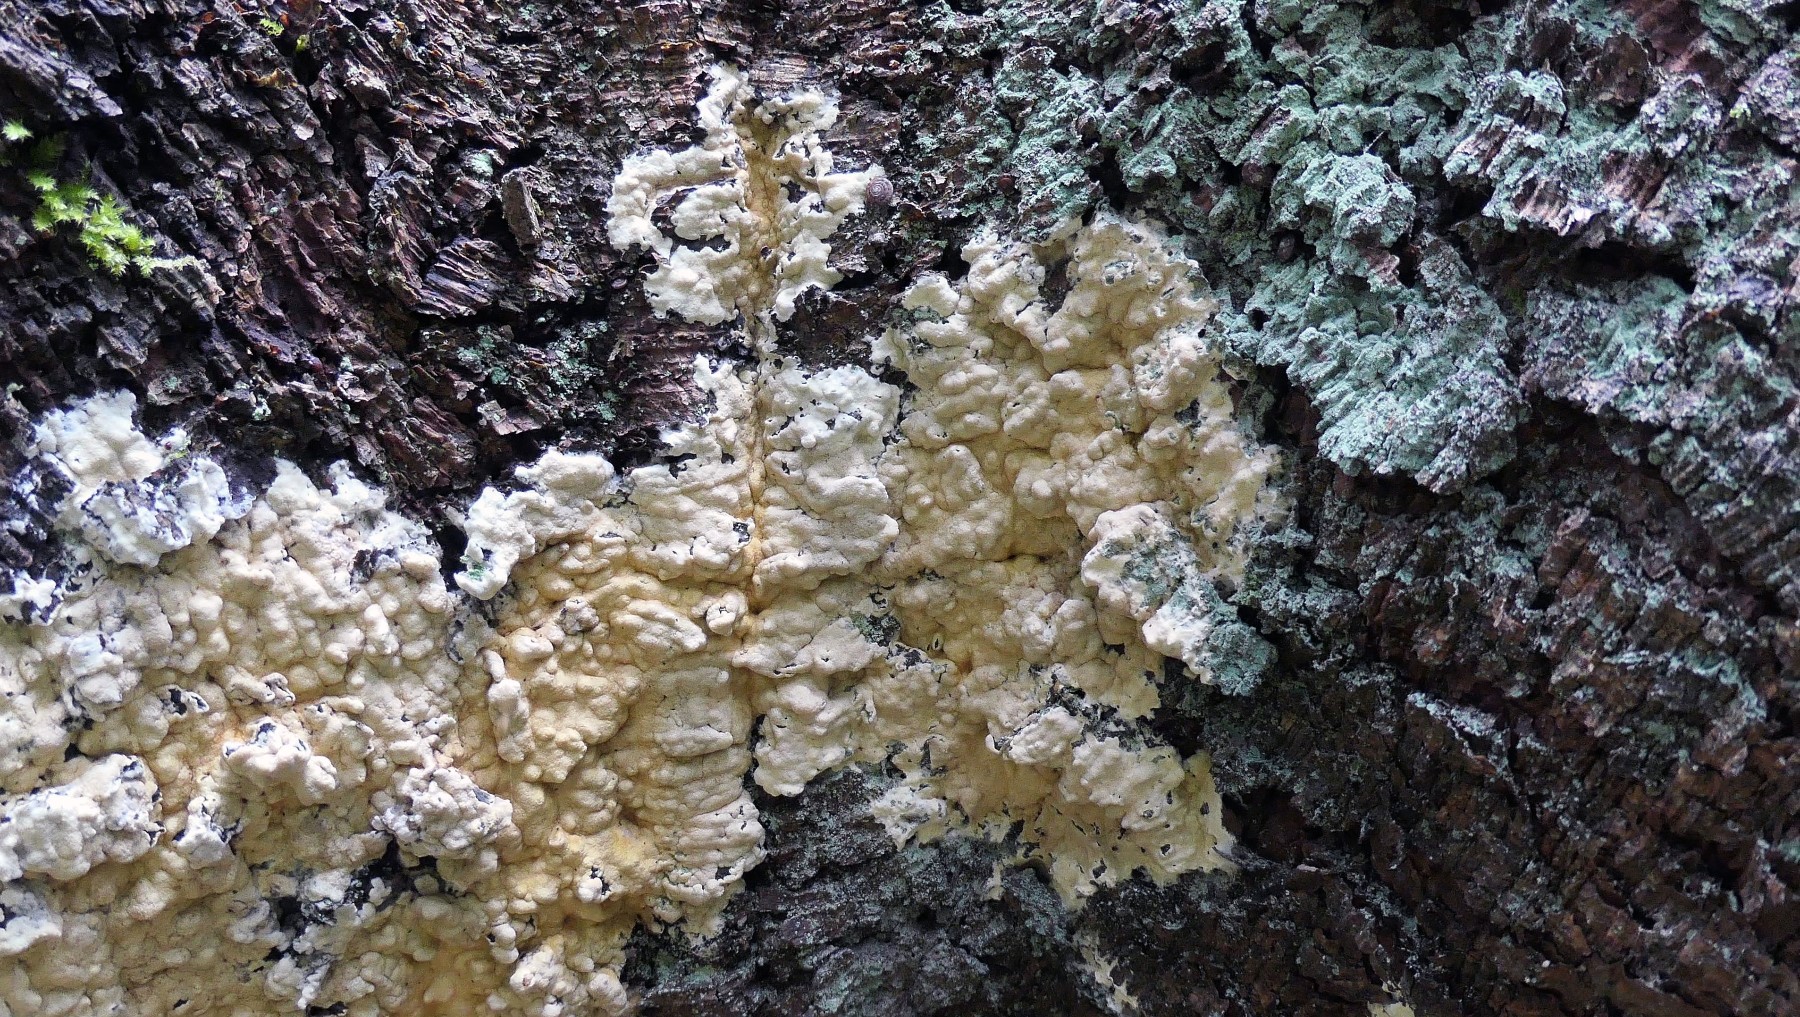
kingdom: Fungi
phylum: Ascomycota
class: Sordariomycetes
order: Hypocreales
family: Hypocreaceae
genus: Trichoderma
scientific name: Trichoderma citrinum
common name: udbredt kødkerne
